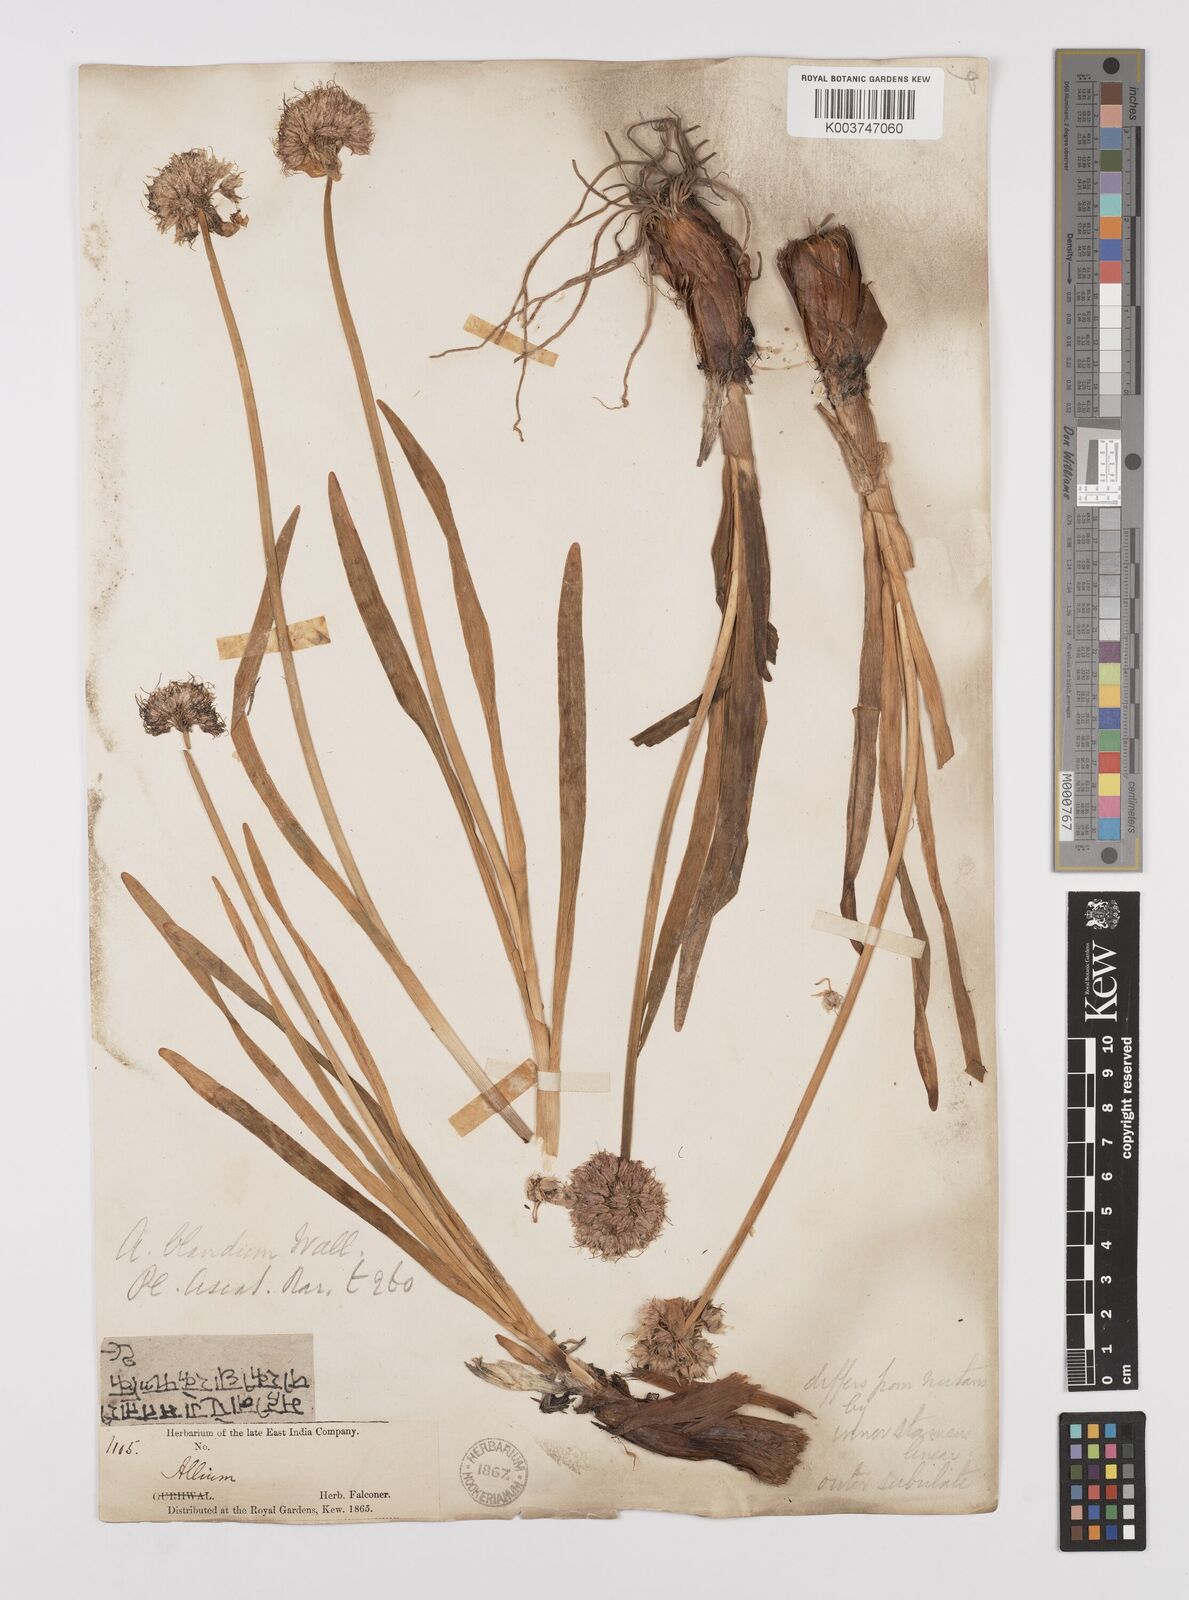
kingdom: Plantae
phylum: Tracheophyta
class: Liliopsida
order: Asparagales
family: Amaryllidaceae
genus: Allium
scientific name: Allium blandum
